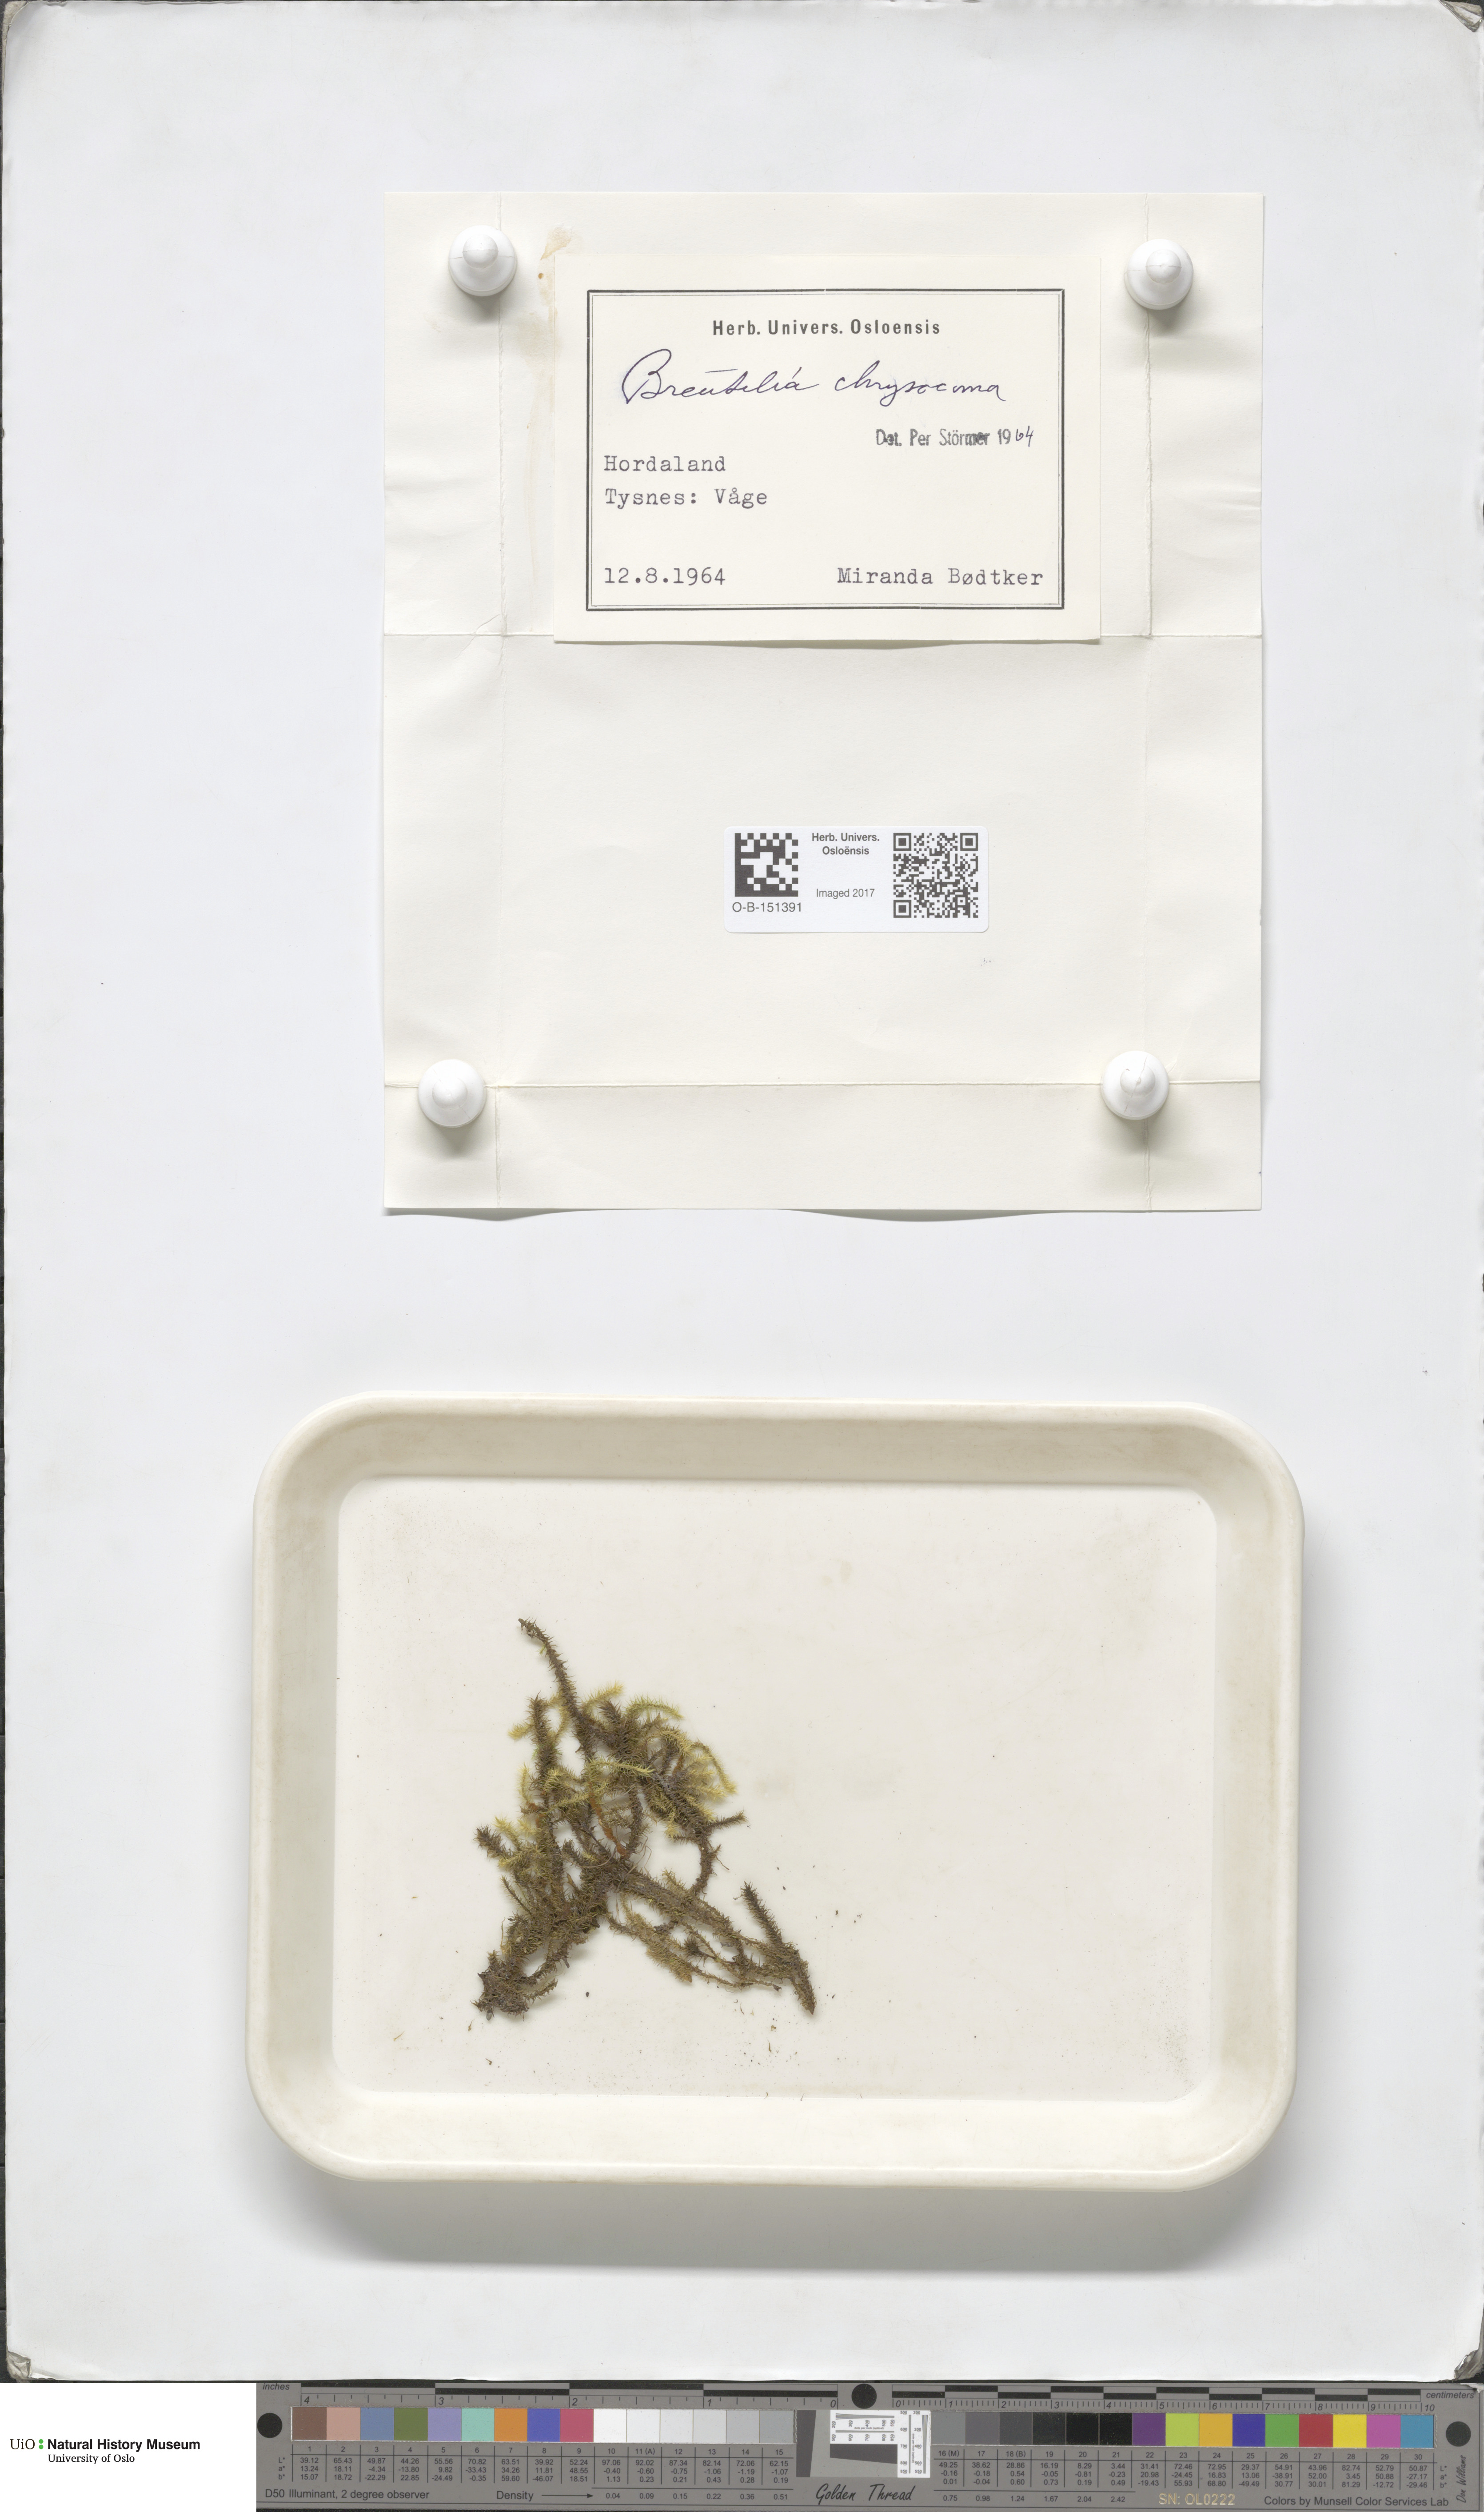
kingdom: Plantae
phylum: Bryophyta
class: Bryopsida
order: Bartramiales
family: Bartramiaceae
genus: Breutelia
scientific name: Breutelia chrysocoma
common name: Bottle-brush moss
